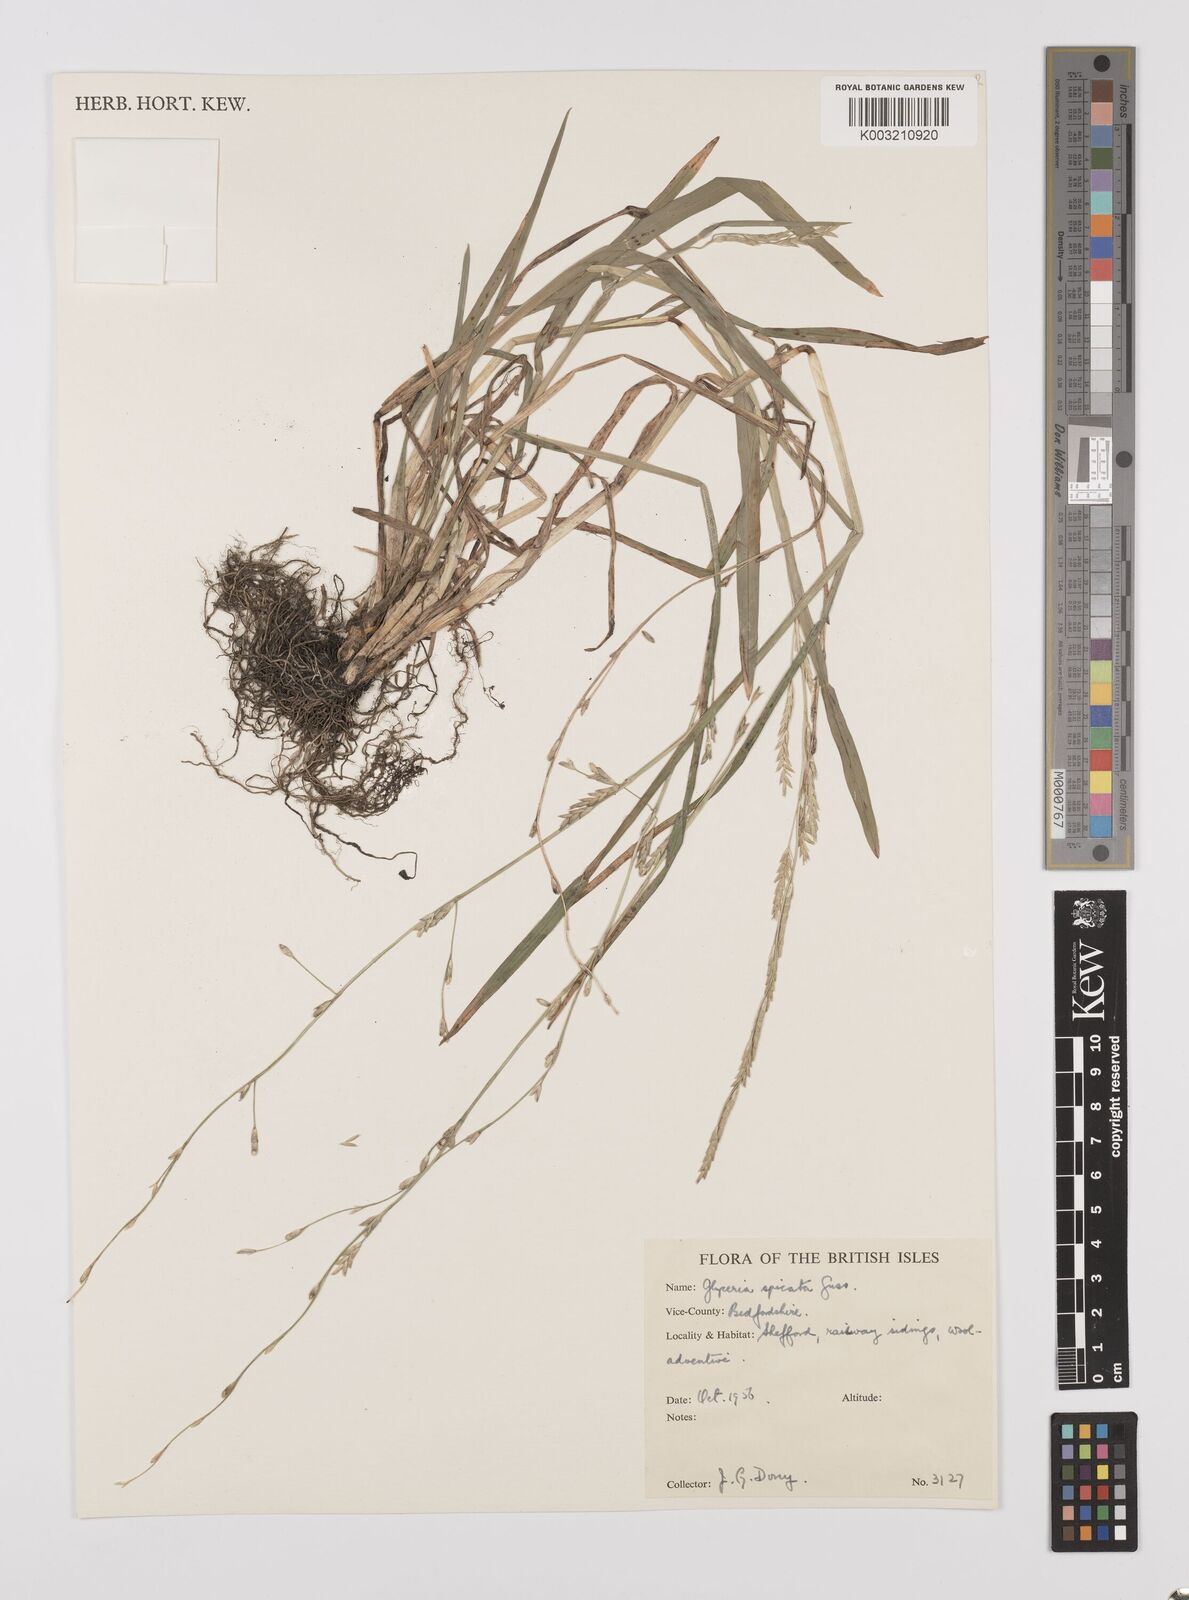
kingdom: Plantae
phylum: Tracheophyta
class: Liliopsida
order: Poales
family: Poaceae
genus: Glyceria
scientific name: Glyceria spicata
